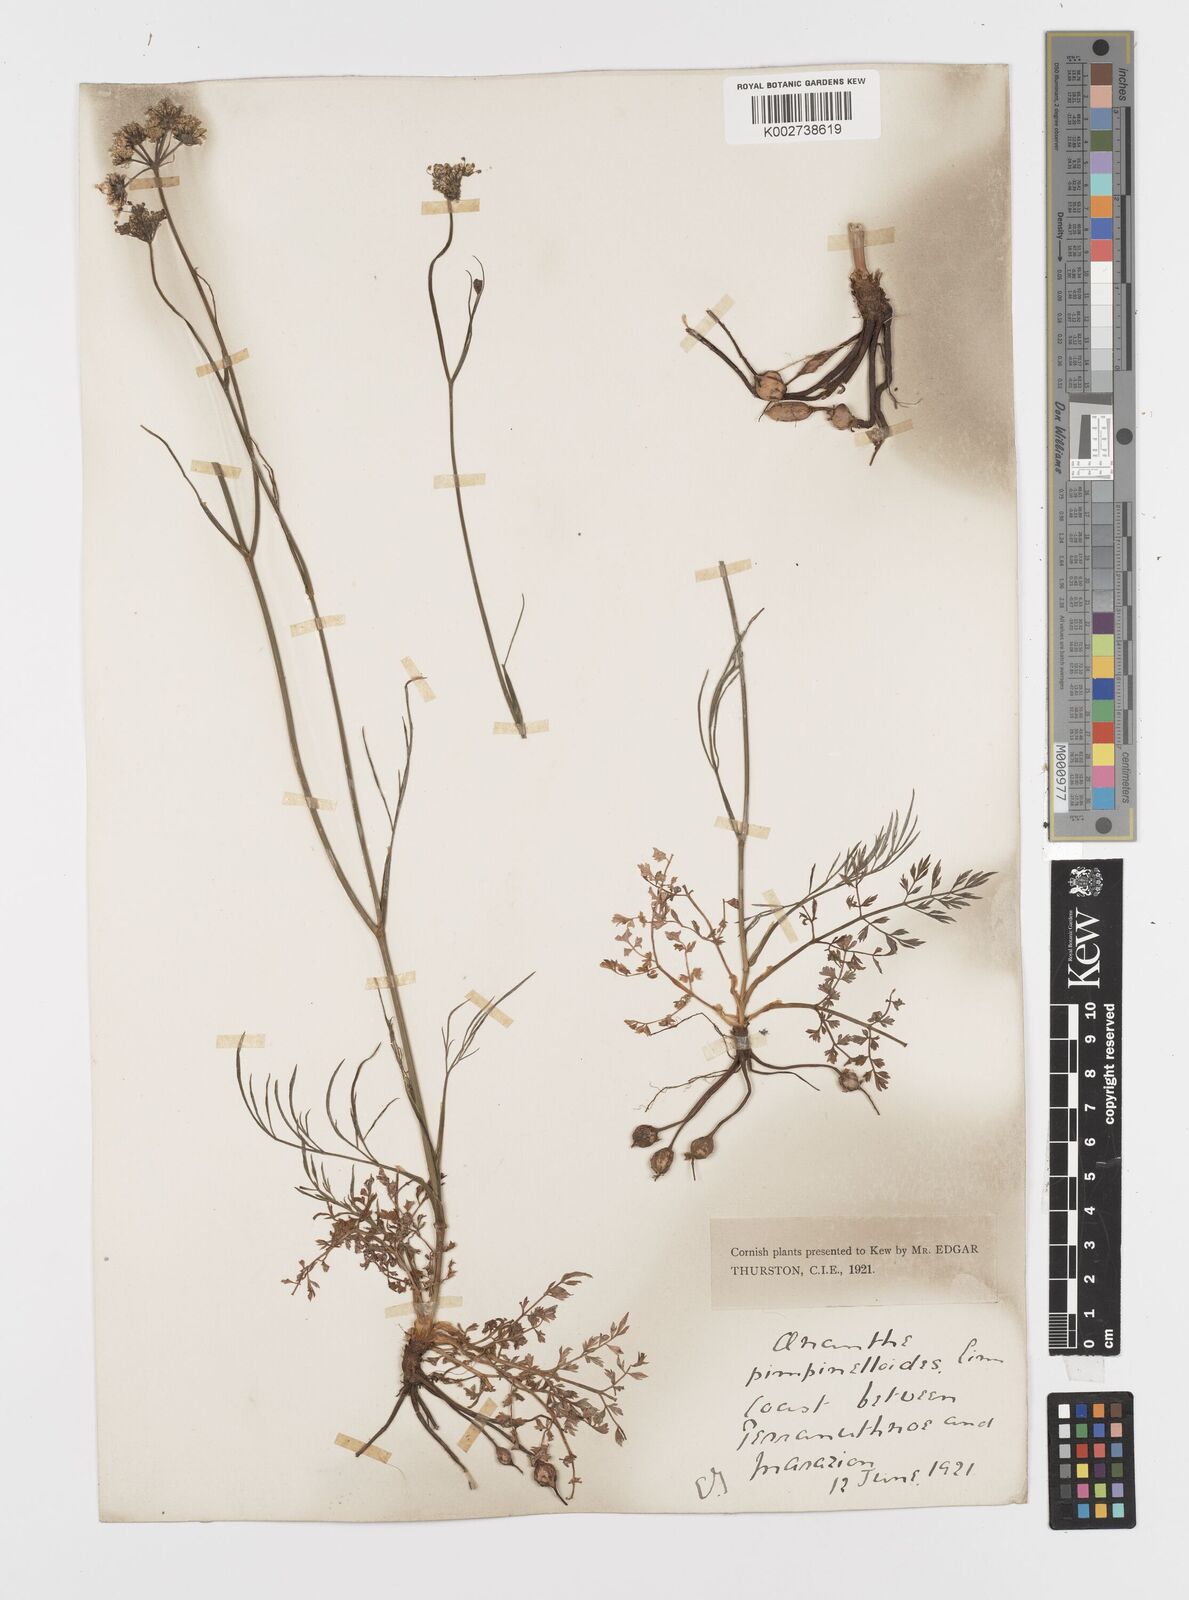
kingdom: Plantae
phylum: Tracheophyta
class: Magnoliopsida
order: Apiales
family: Apiaceae
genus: Oenanthe
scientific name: Oenanthe pimpinelloides
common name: Corky-fruited water-dropwort
